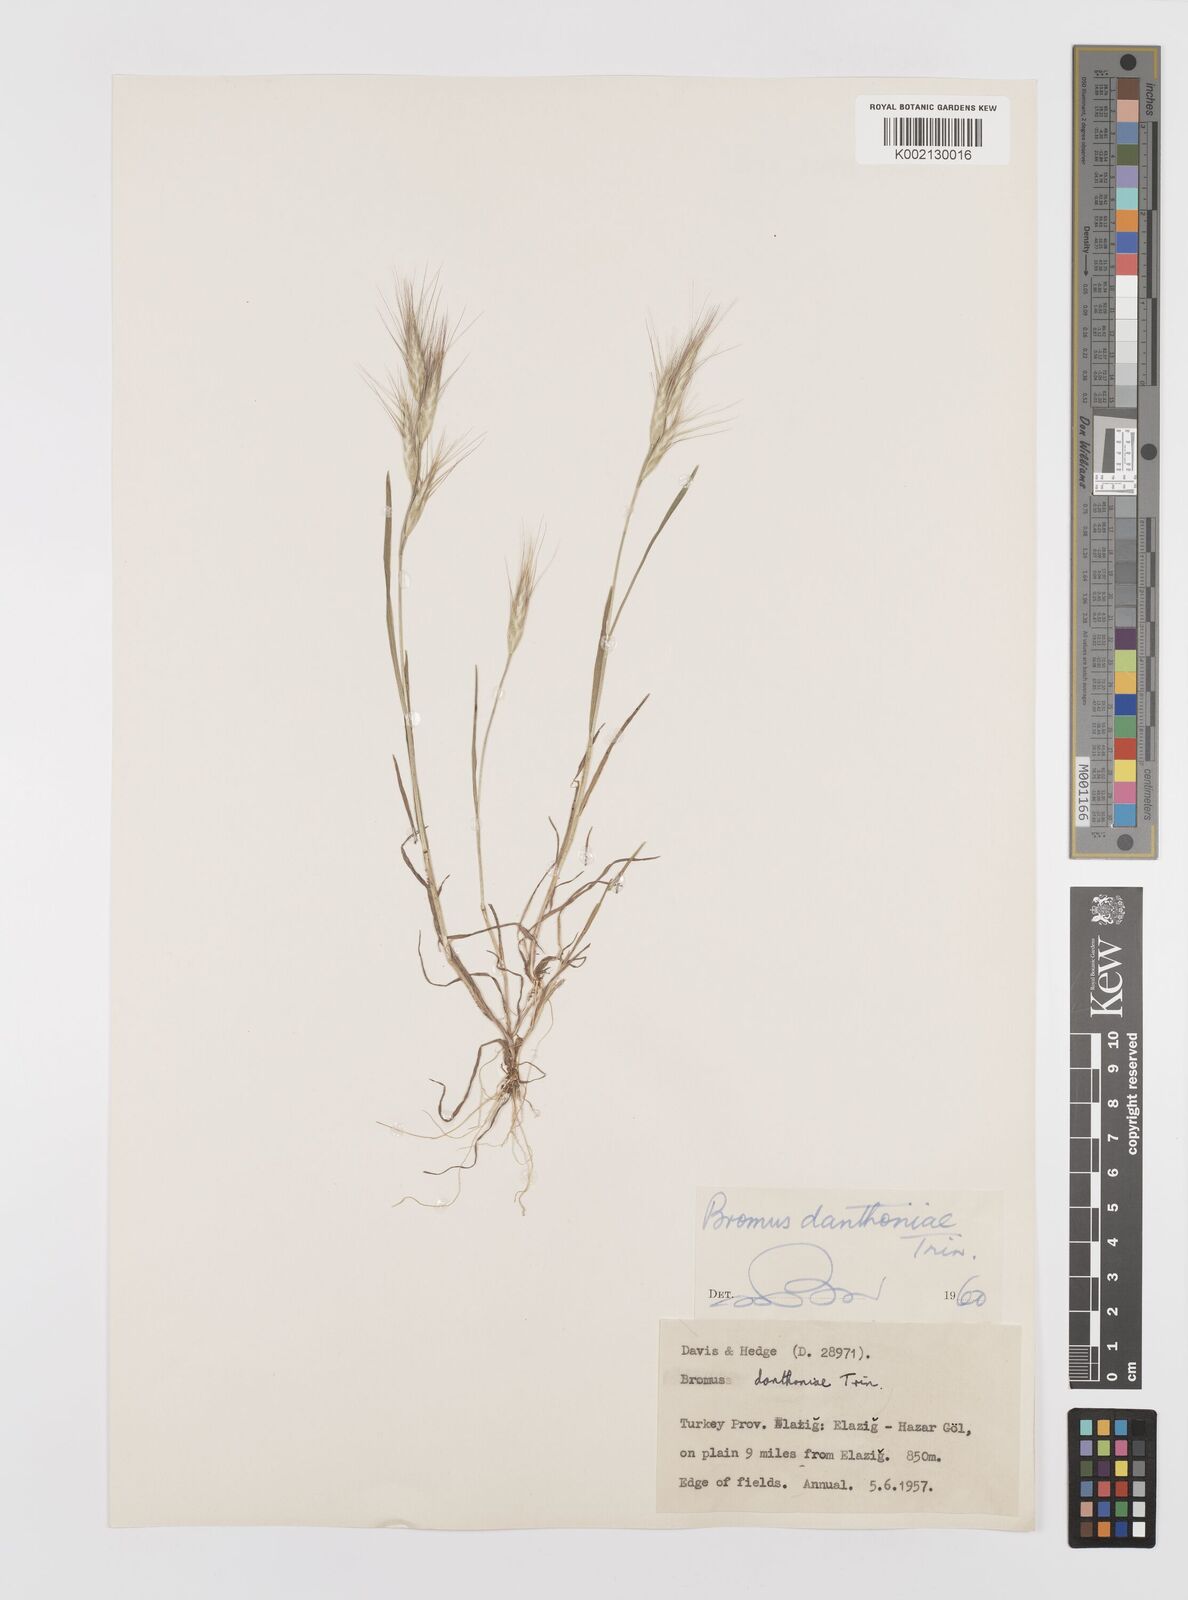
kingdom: Plantae
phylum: Tracheophyta
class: Liliopsida
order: Poales
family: Poaceae
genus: Bromus
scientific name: Bromus danthoniae
